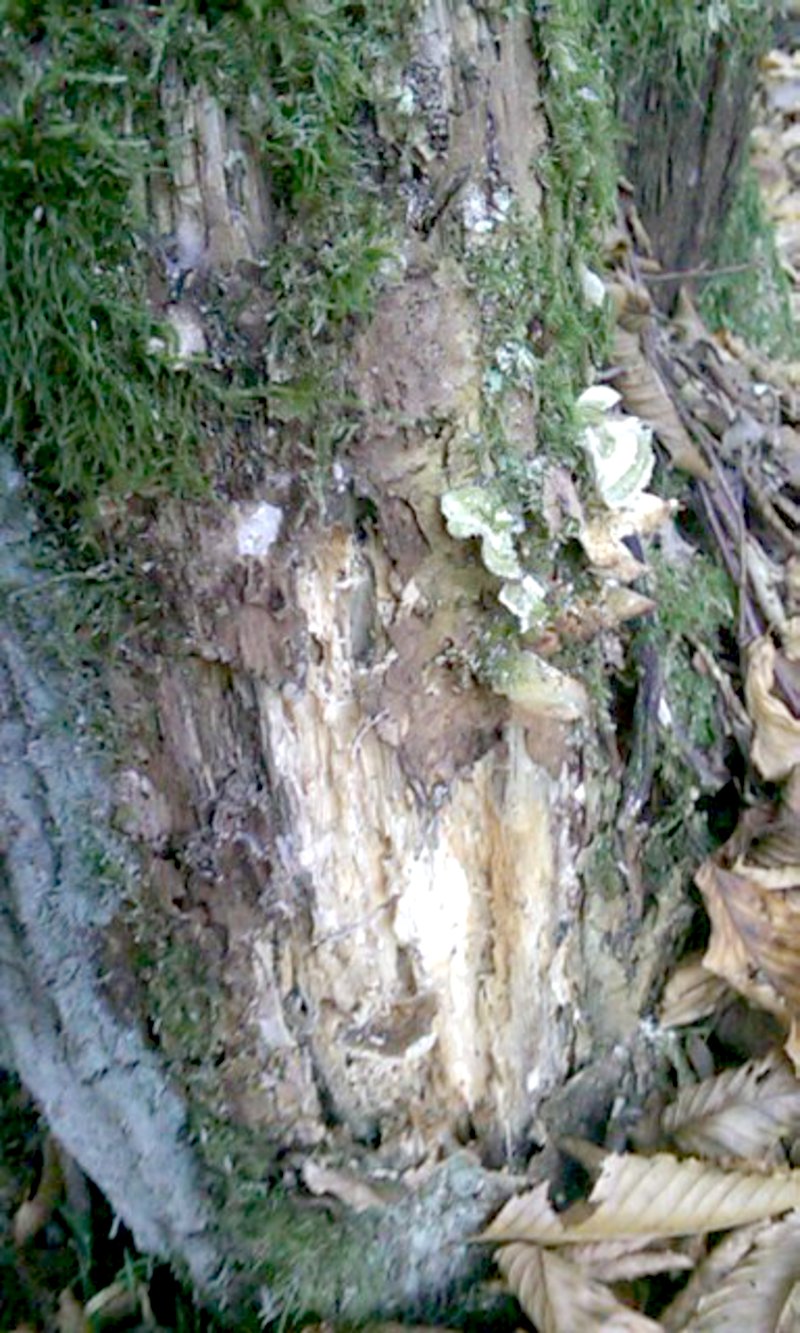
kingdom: Plantae
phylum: Tracheophyta
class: Magnoliopsida
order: Fagales
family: Fagaceae
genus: Quercus
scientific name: Quercus robur
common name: Pedunculate oak
